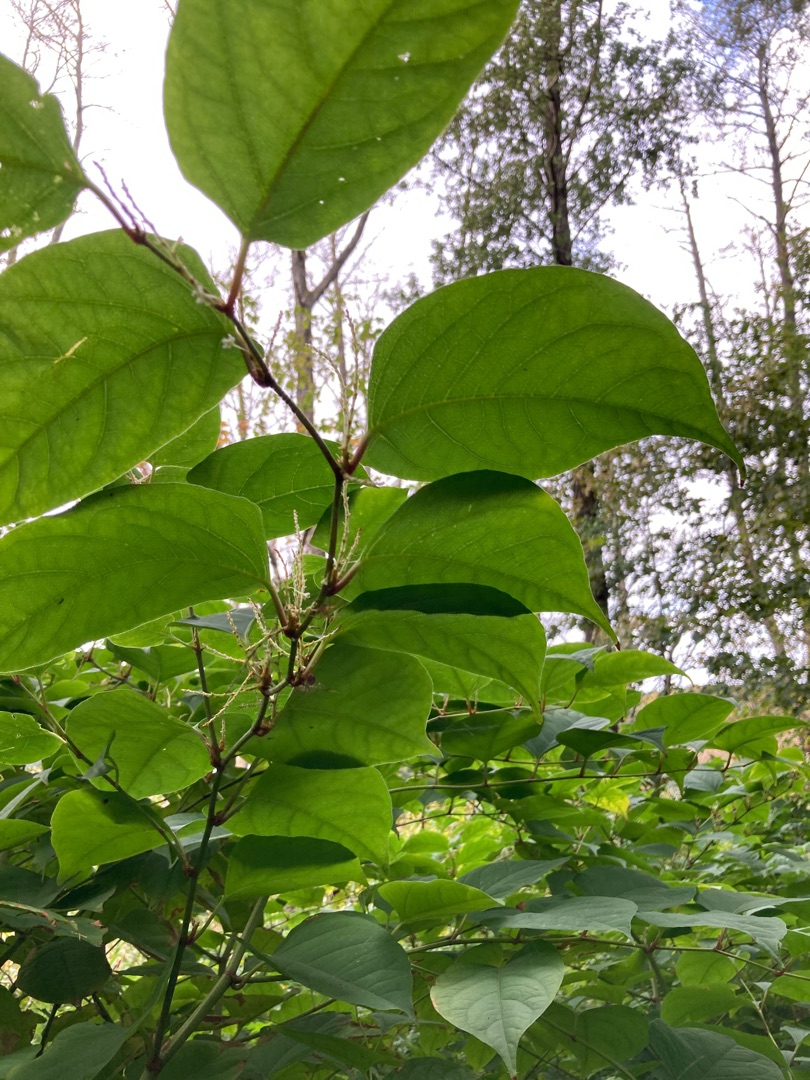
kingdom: Plantae
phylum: Tracheophyta
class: Magnoliopsida
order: Caryophyllales
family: Polygonaceae
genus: Reynoutria
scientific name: Reynoutria japonica
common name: Japan-pileurt
